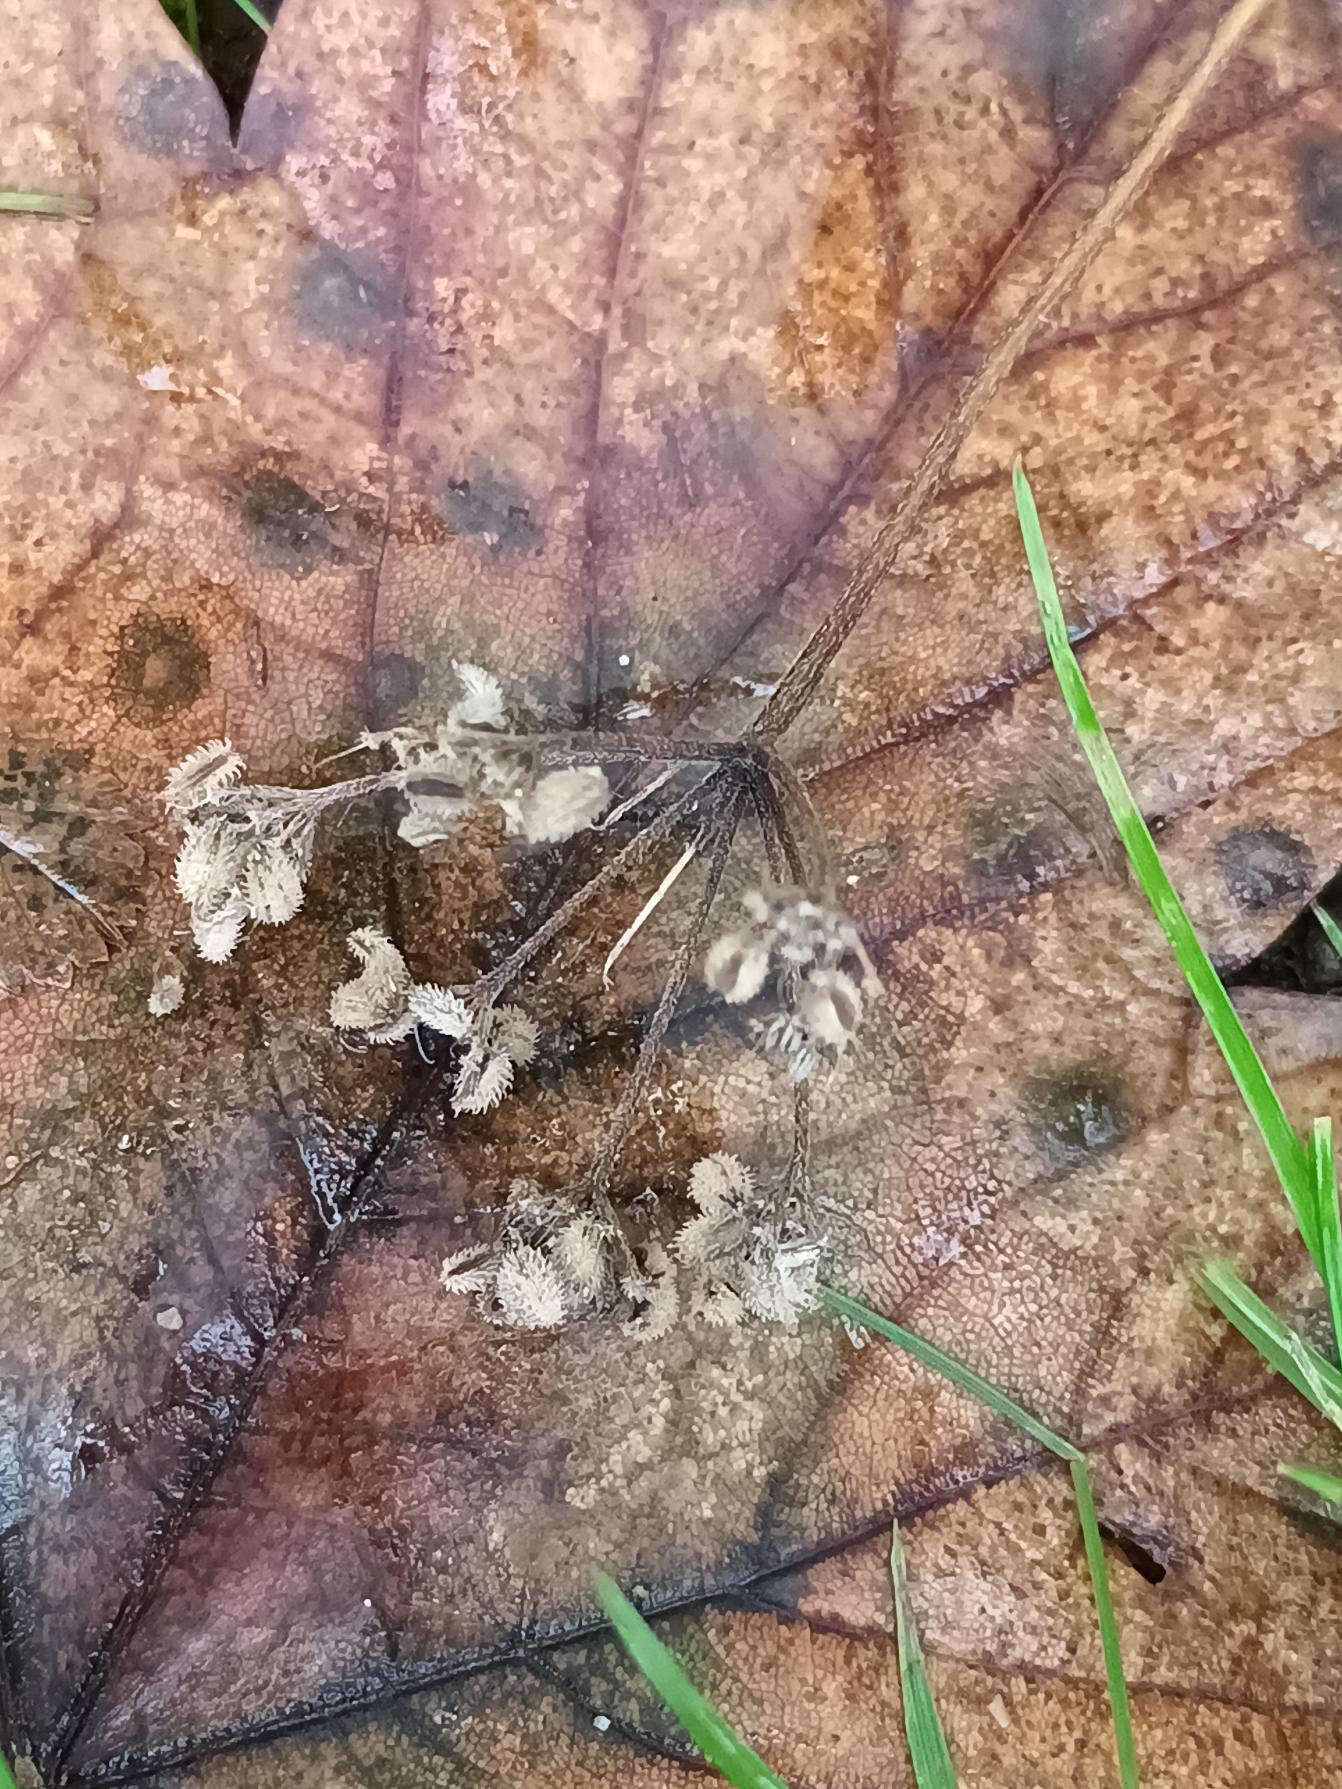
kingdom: Plantae
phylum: Tracheophyta
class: Magnoliopsida
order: Apiales
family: Apiaceae
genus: Torilis
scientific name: Torilis japonica
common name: Hvas randfrø
